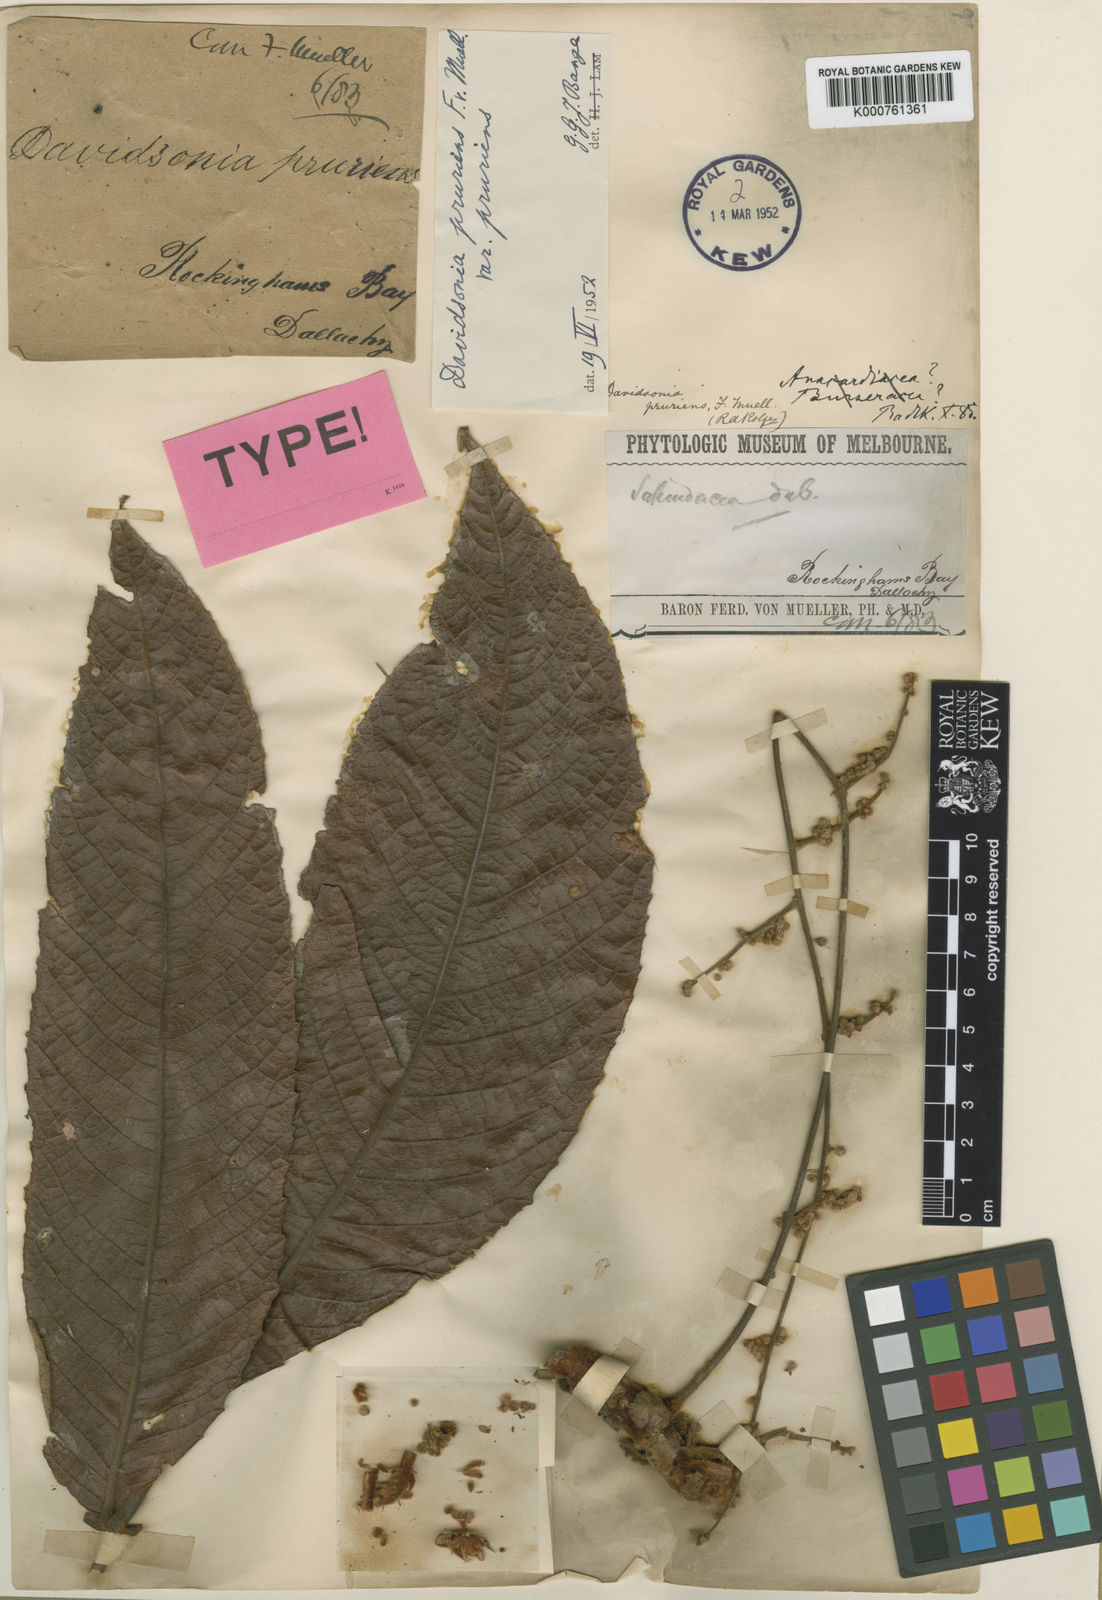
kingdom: Plantae
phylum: Tracheophyta
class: Magnoliopsida
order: Oxalidales
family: Cunoniaceae
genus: Davidsonia
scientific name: Davidsonia pruriens
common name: Do-rog
